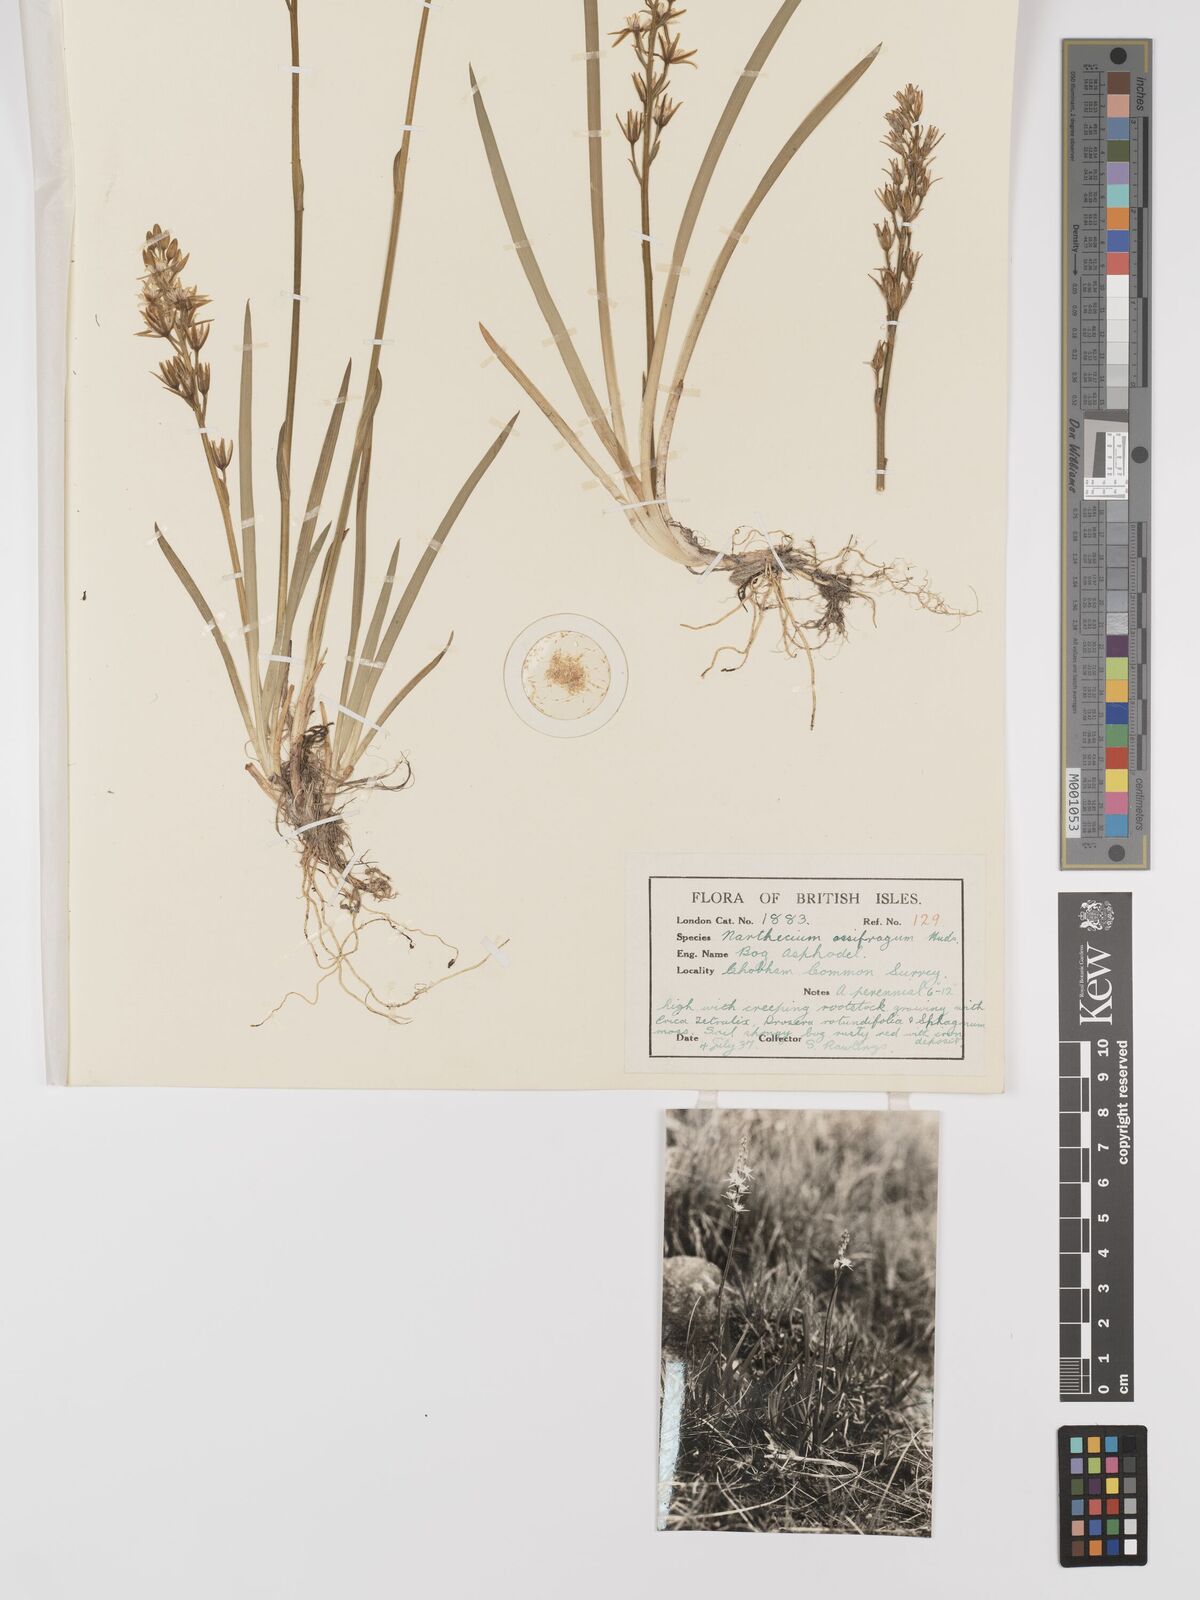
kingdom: Plantae
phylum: Tracheophyta
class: Liliopsida
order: Dioscoreales
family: Nartheciaceae
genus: Narthecium
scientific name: Narthecium
